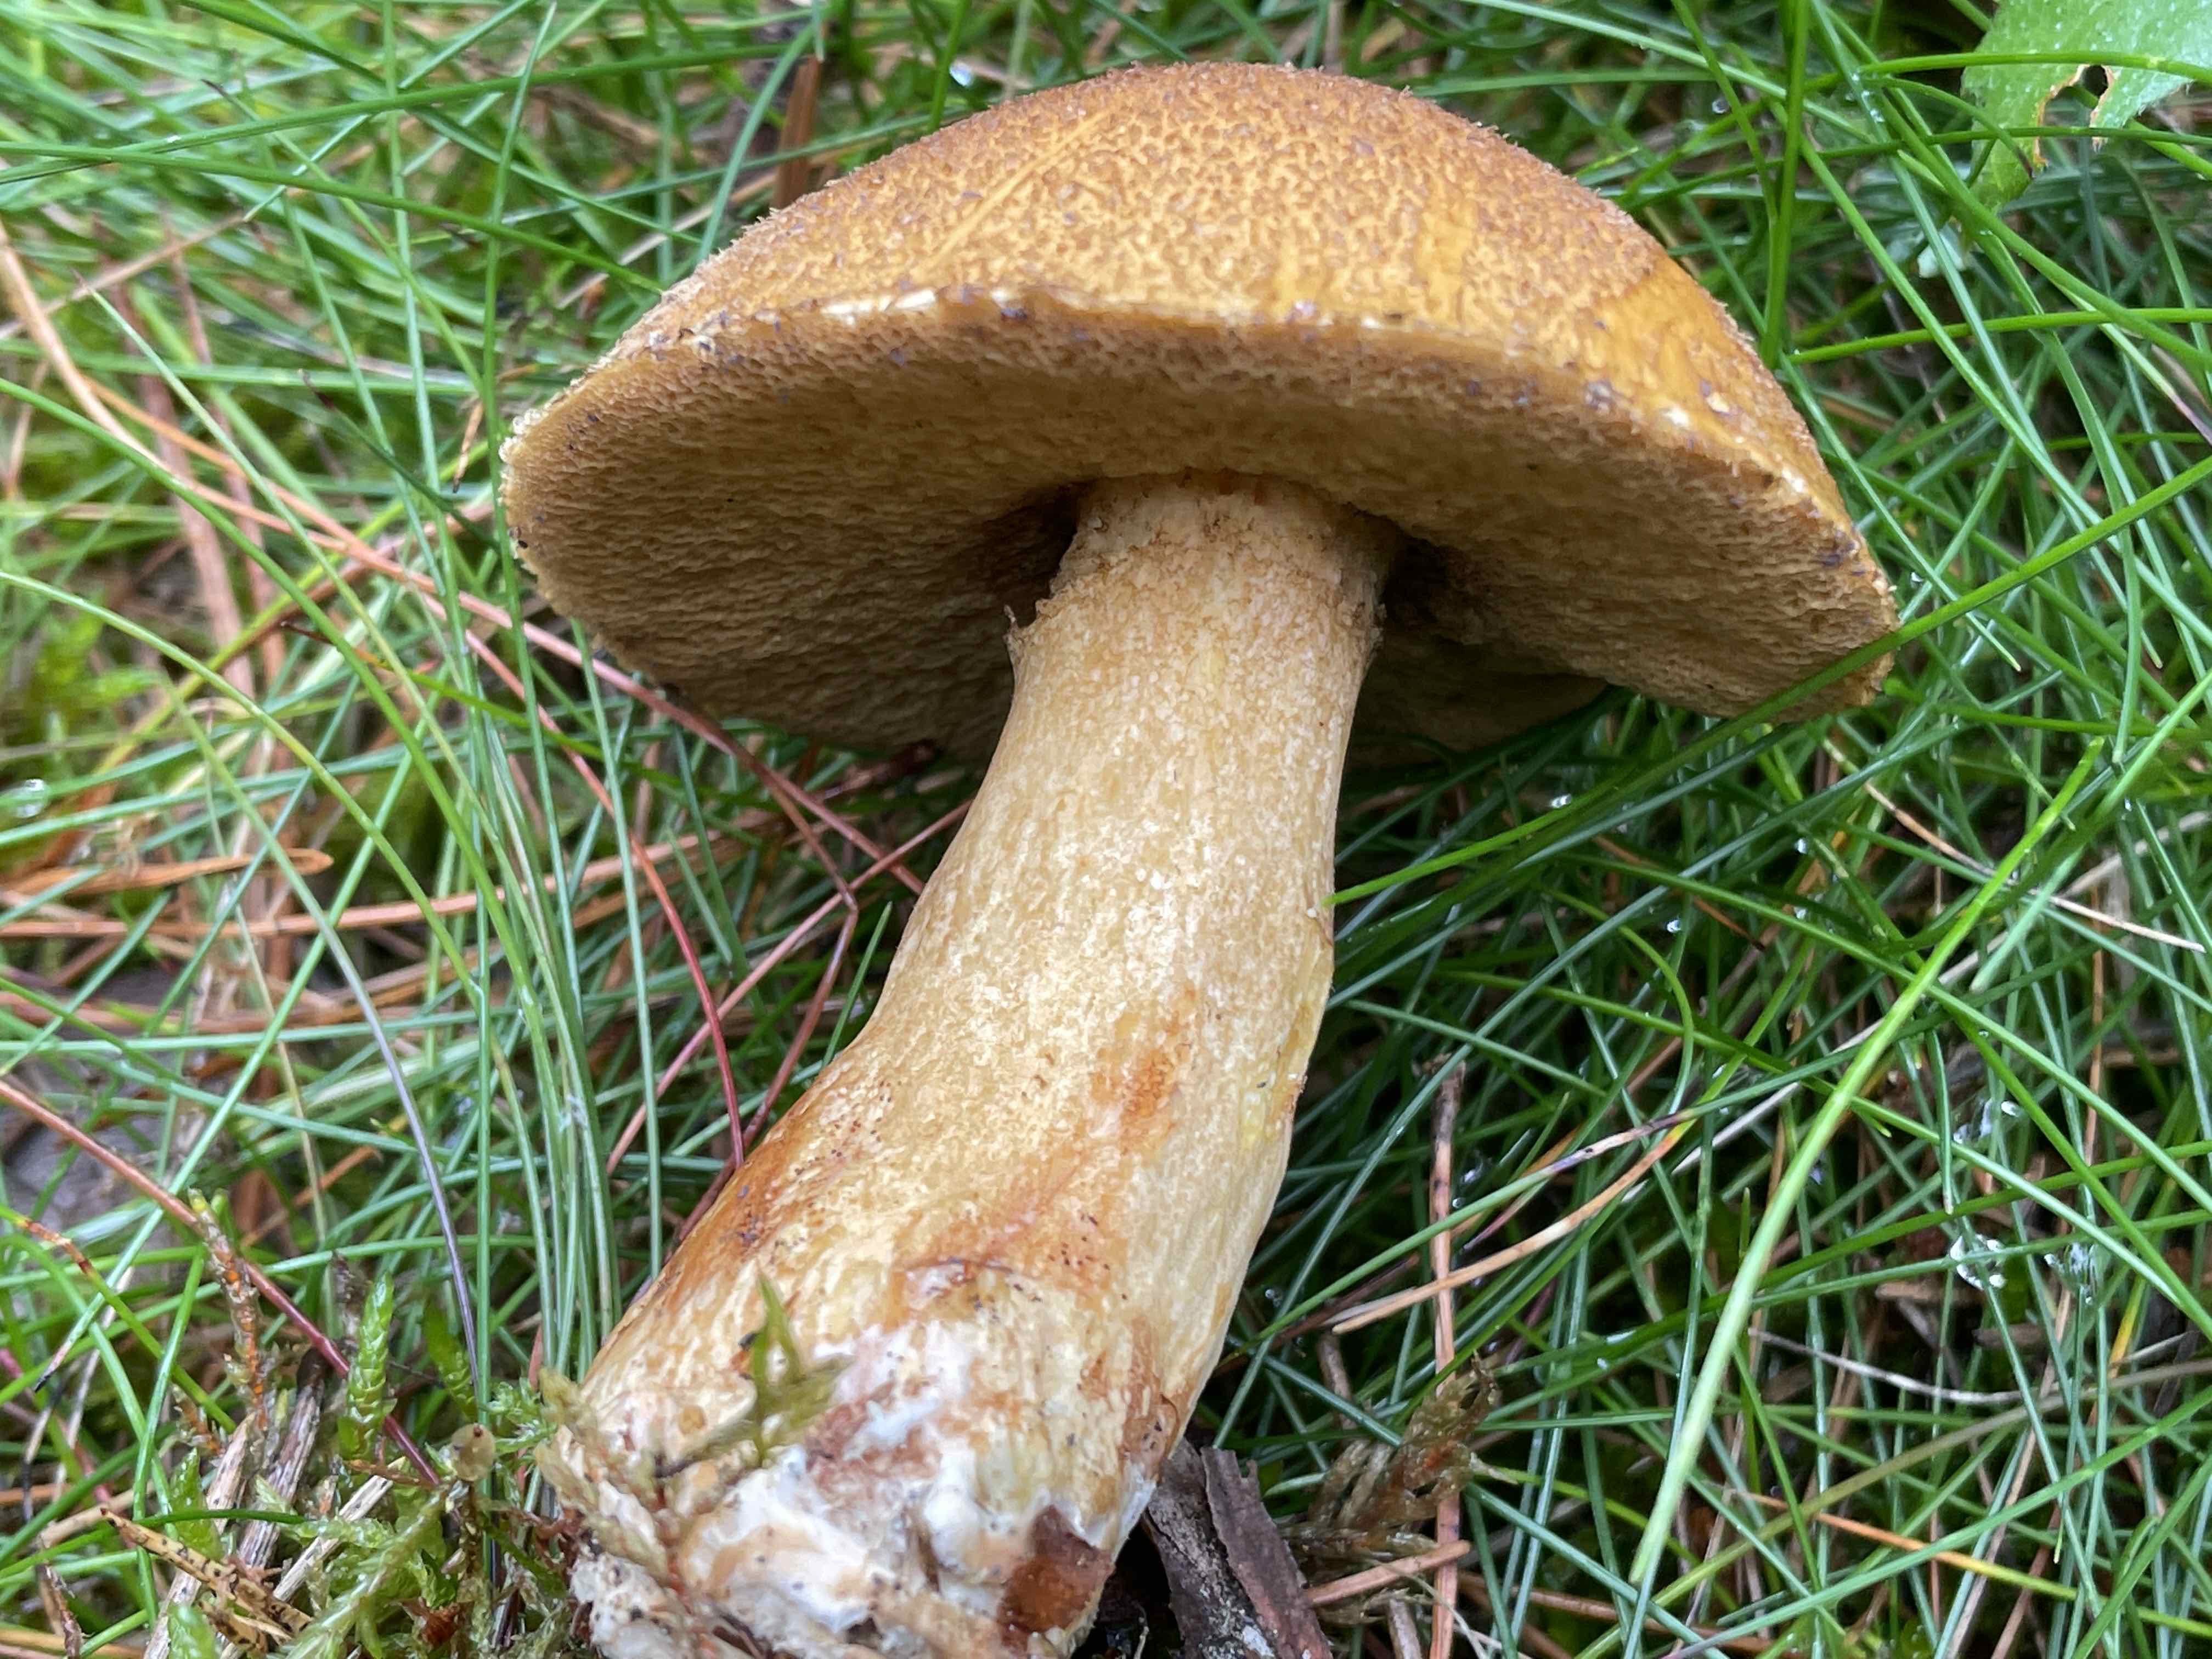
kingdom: Fungi
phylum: Basidiomycota
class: Agaricomycetes
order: Boletales
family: Suillaceae
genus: Suillus
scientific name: Suillus variegatus
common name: broget slimrørhat
